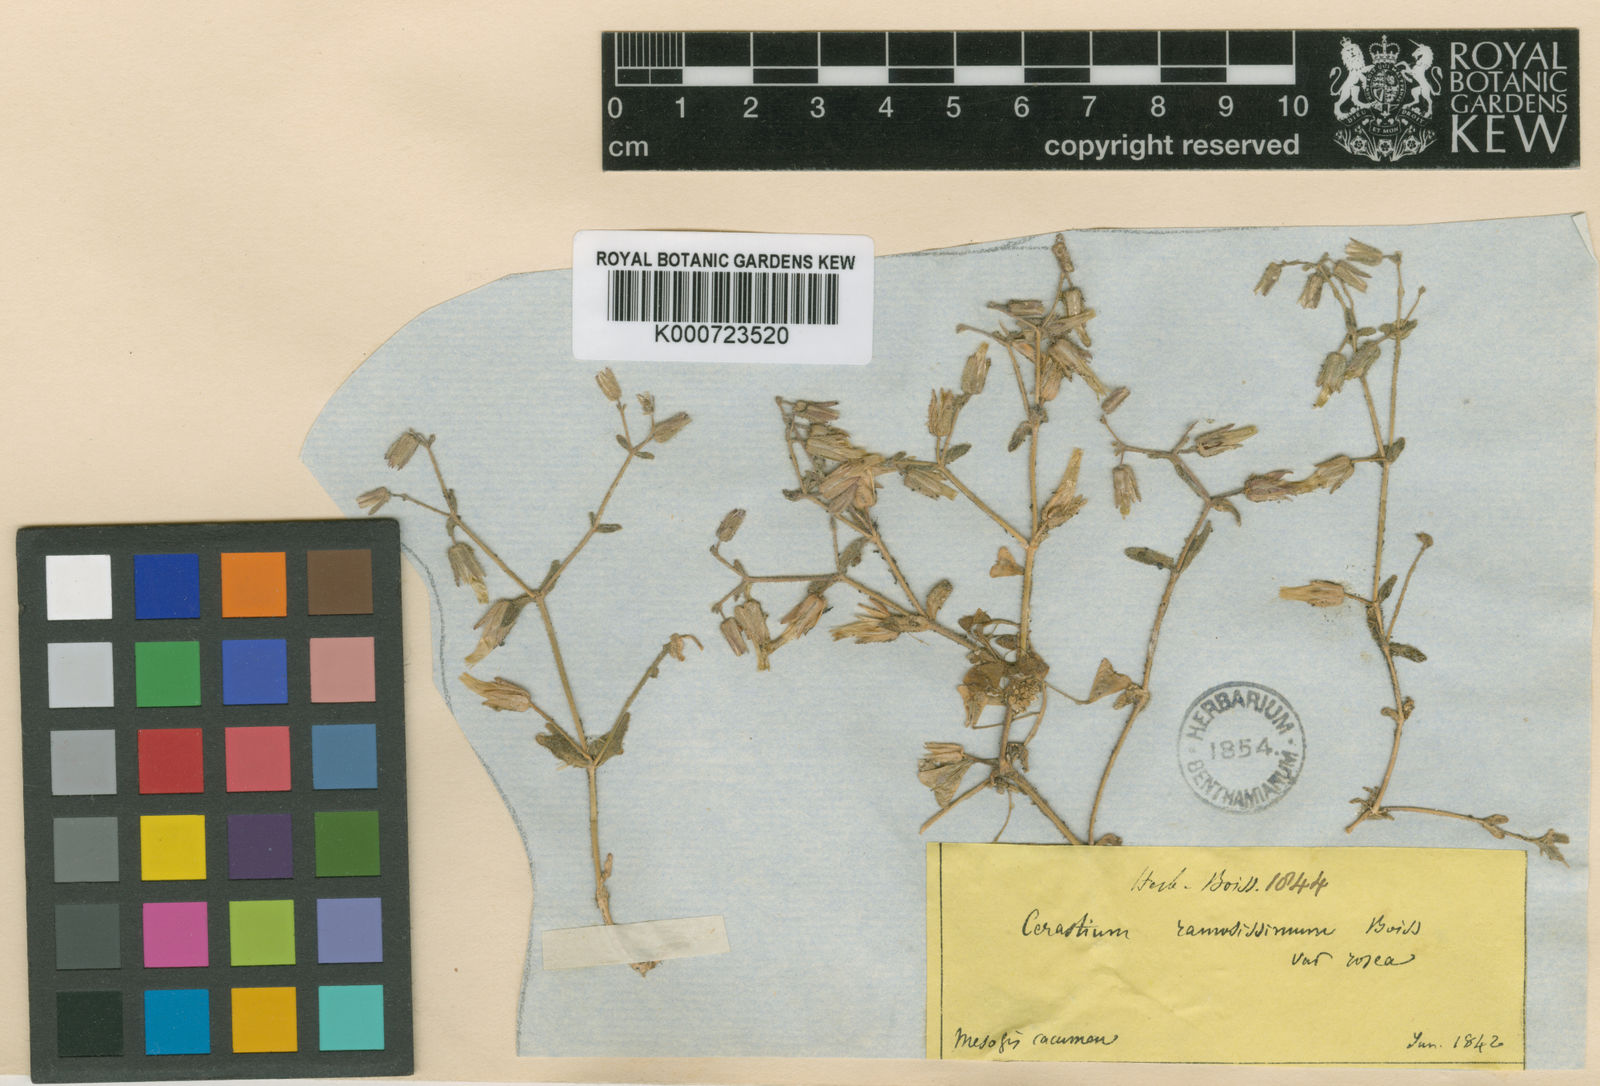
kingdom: Plantae
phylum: Tracheophyta
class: Magnoliopsida
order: Caryophyllales
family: Caryophyllaceae
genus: Cerastium
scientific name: Cerastium gracile
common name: Slender chickweed
